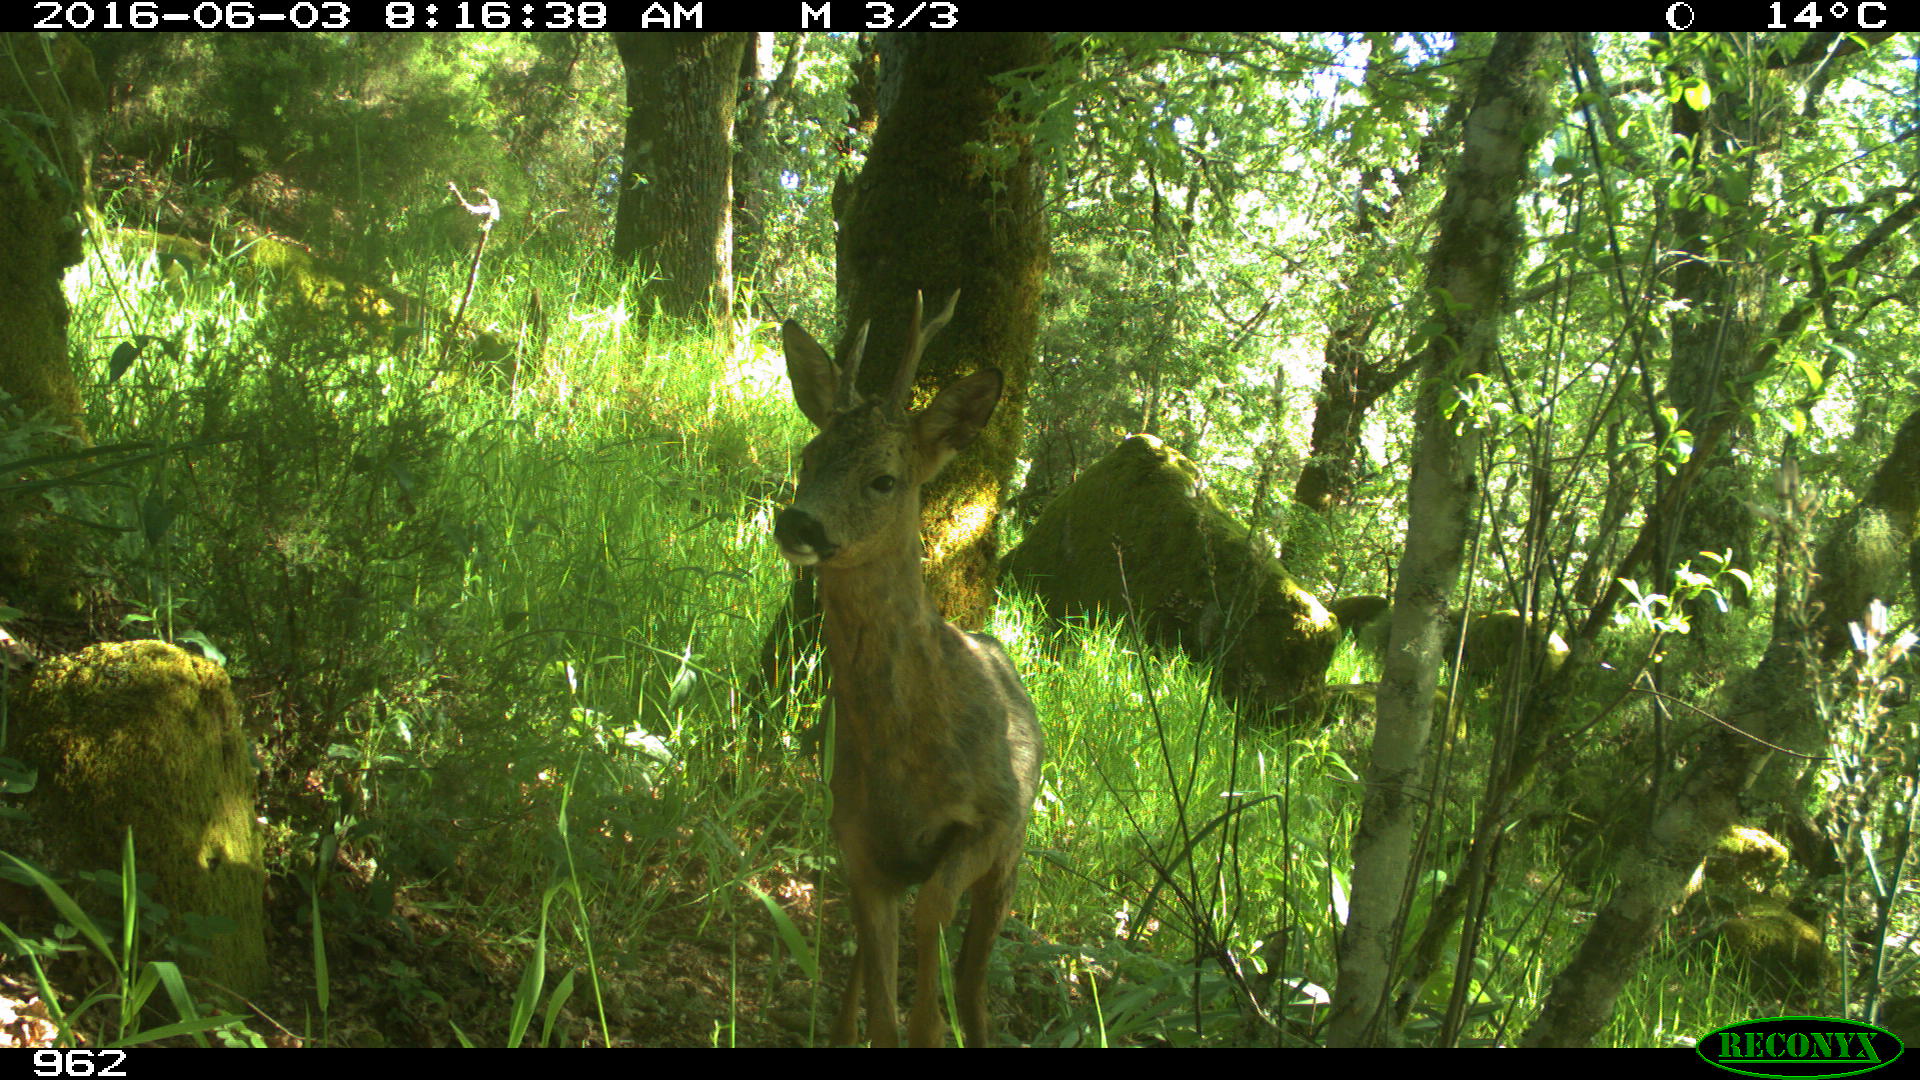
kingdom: Animalia
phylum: Chordata
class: Mammalia
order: Artiodactyla
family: Cervidae
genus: Capreolus
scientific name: Capreolus capreolus
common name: Western roe deer
